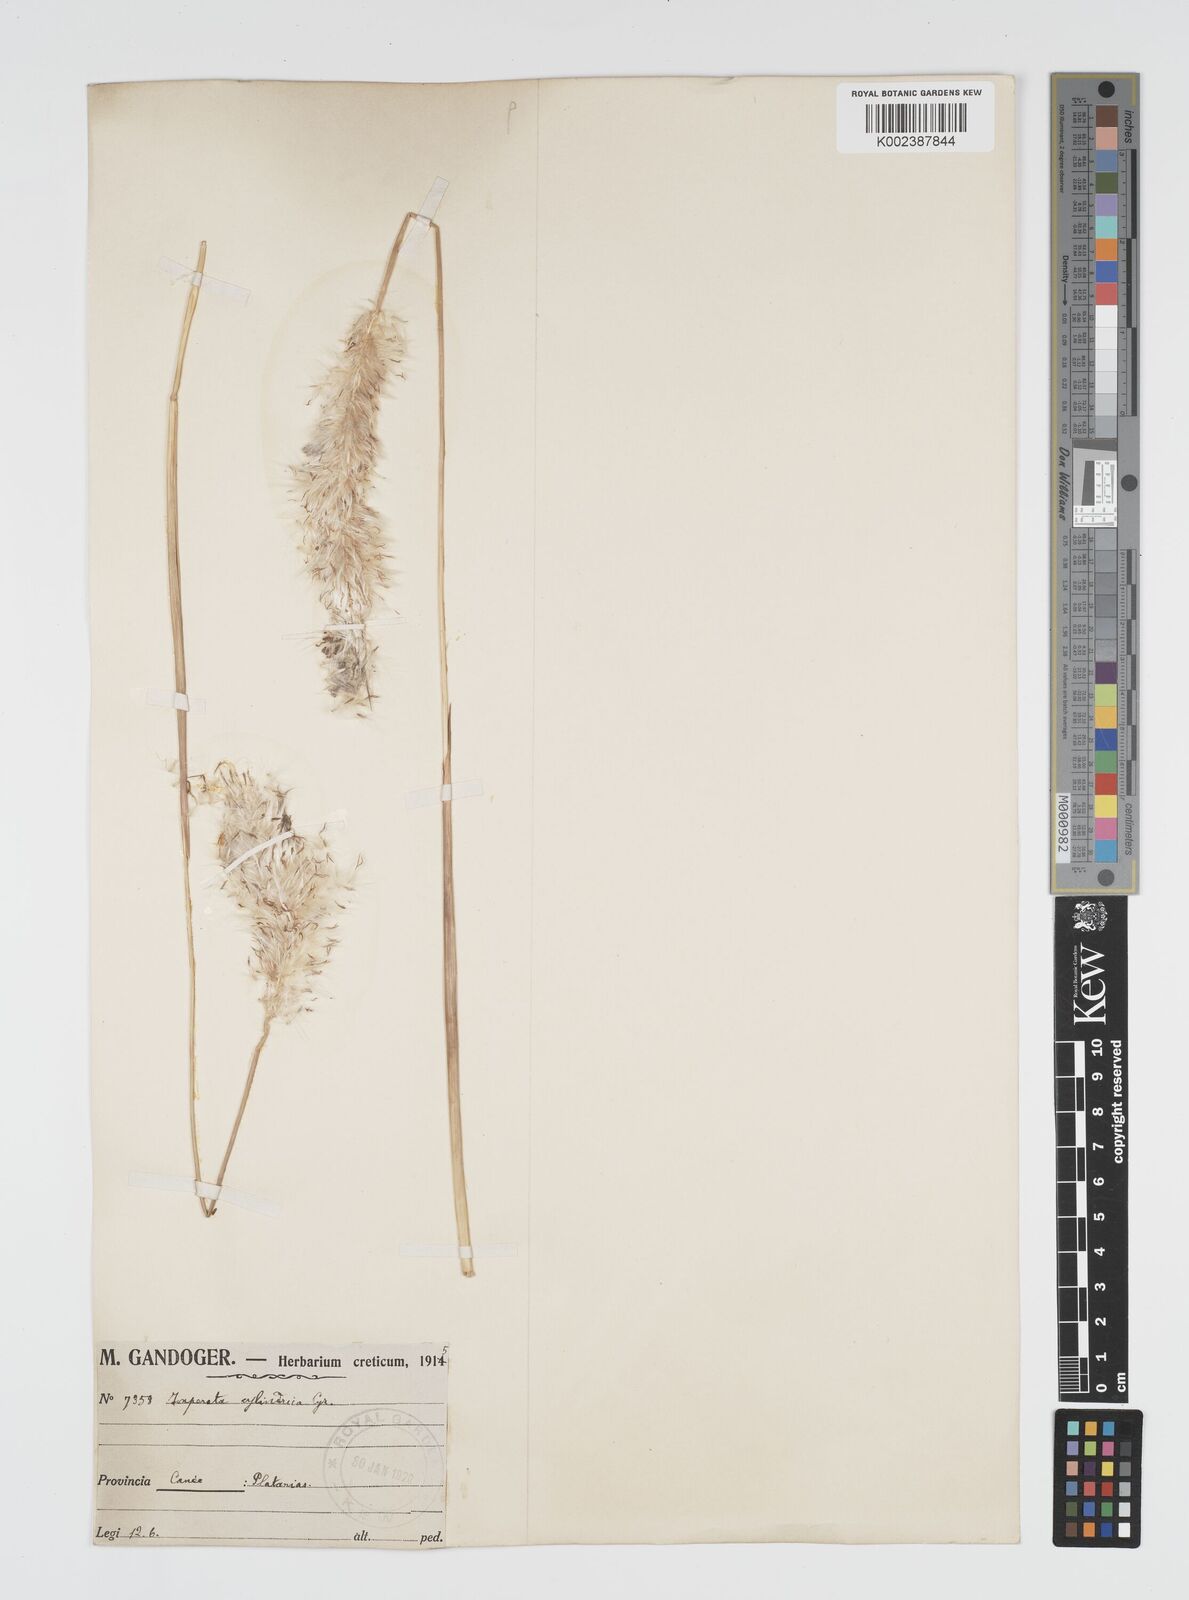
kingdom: Plantae
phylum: Tracheophyta
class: Liliopsida
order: Poales
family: Poaceae
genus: Imperata
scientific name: Imperata cylindrica
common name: Cogongrass
